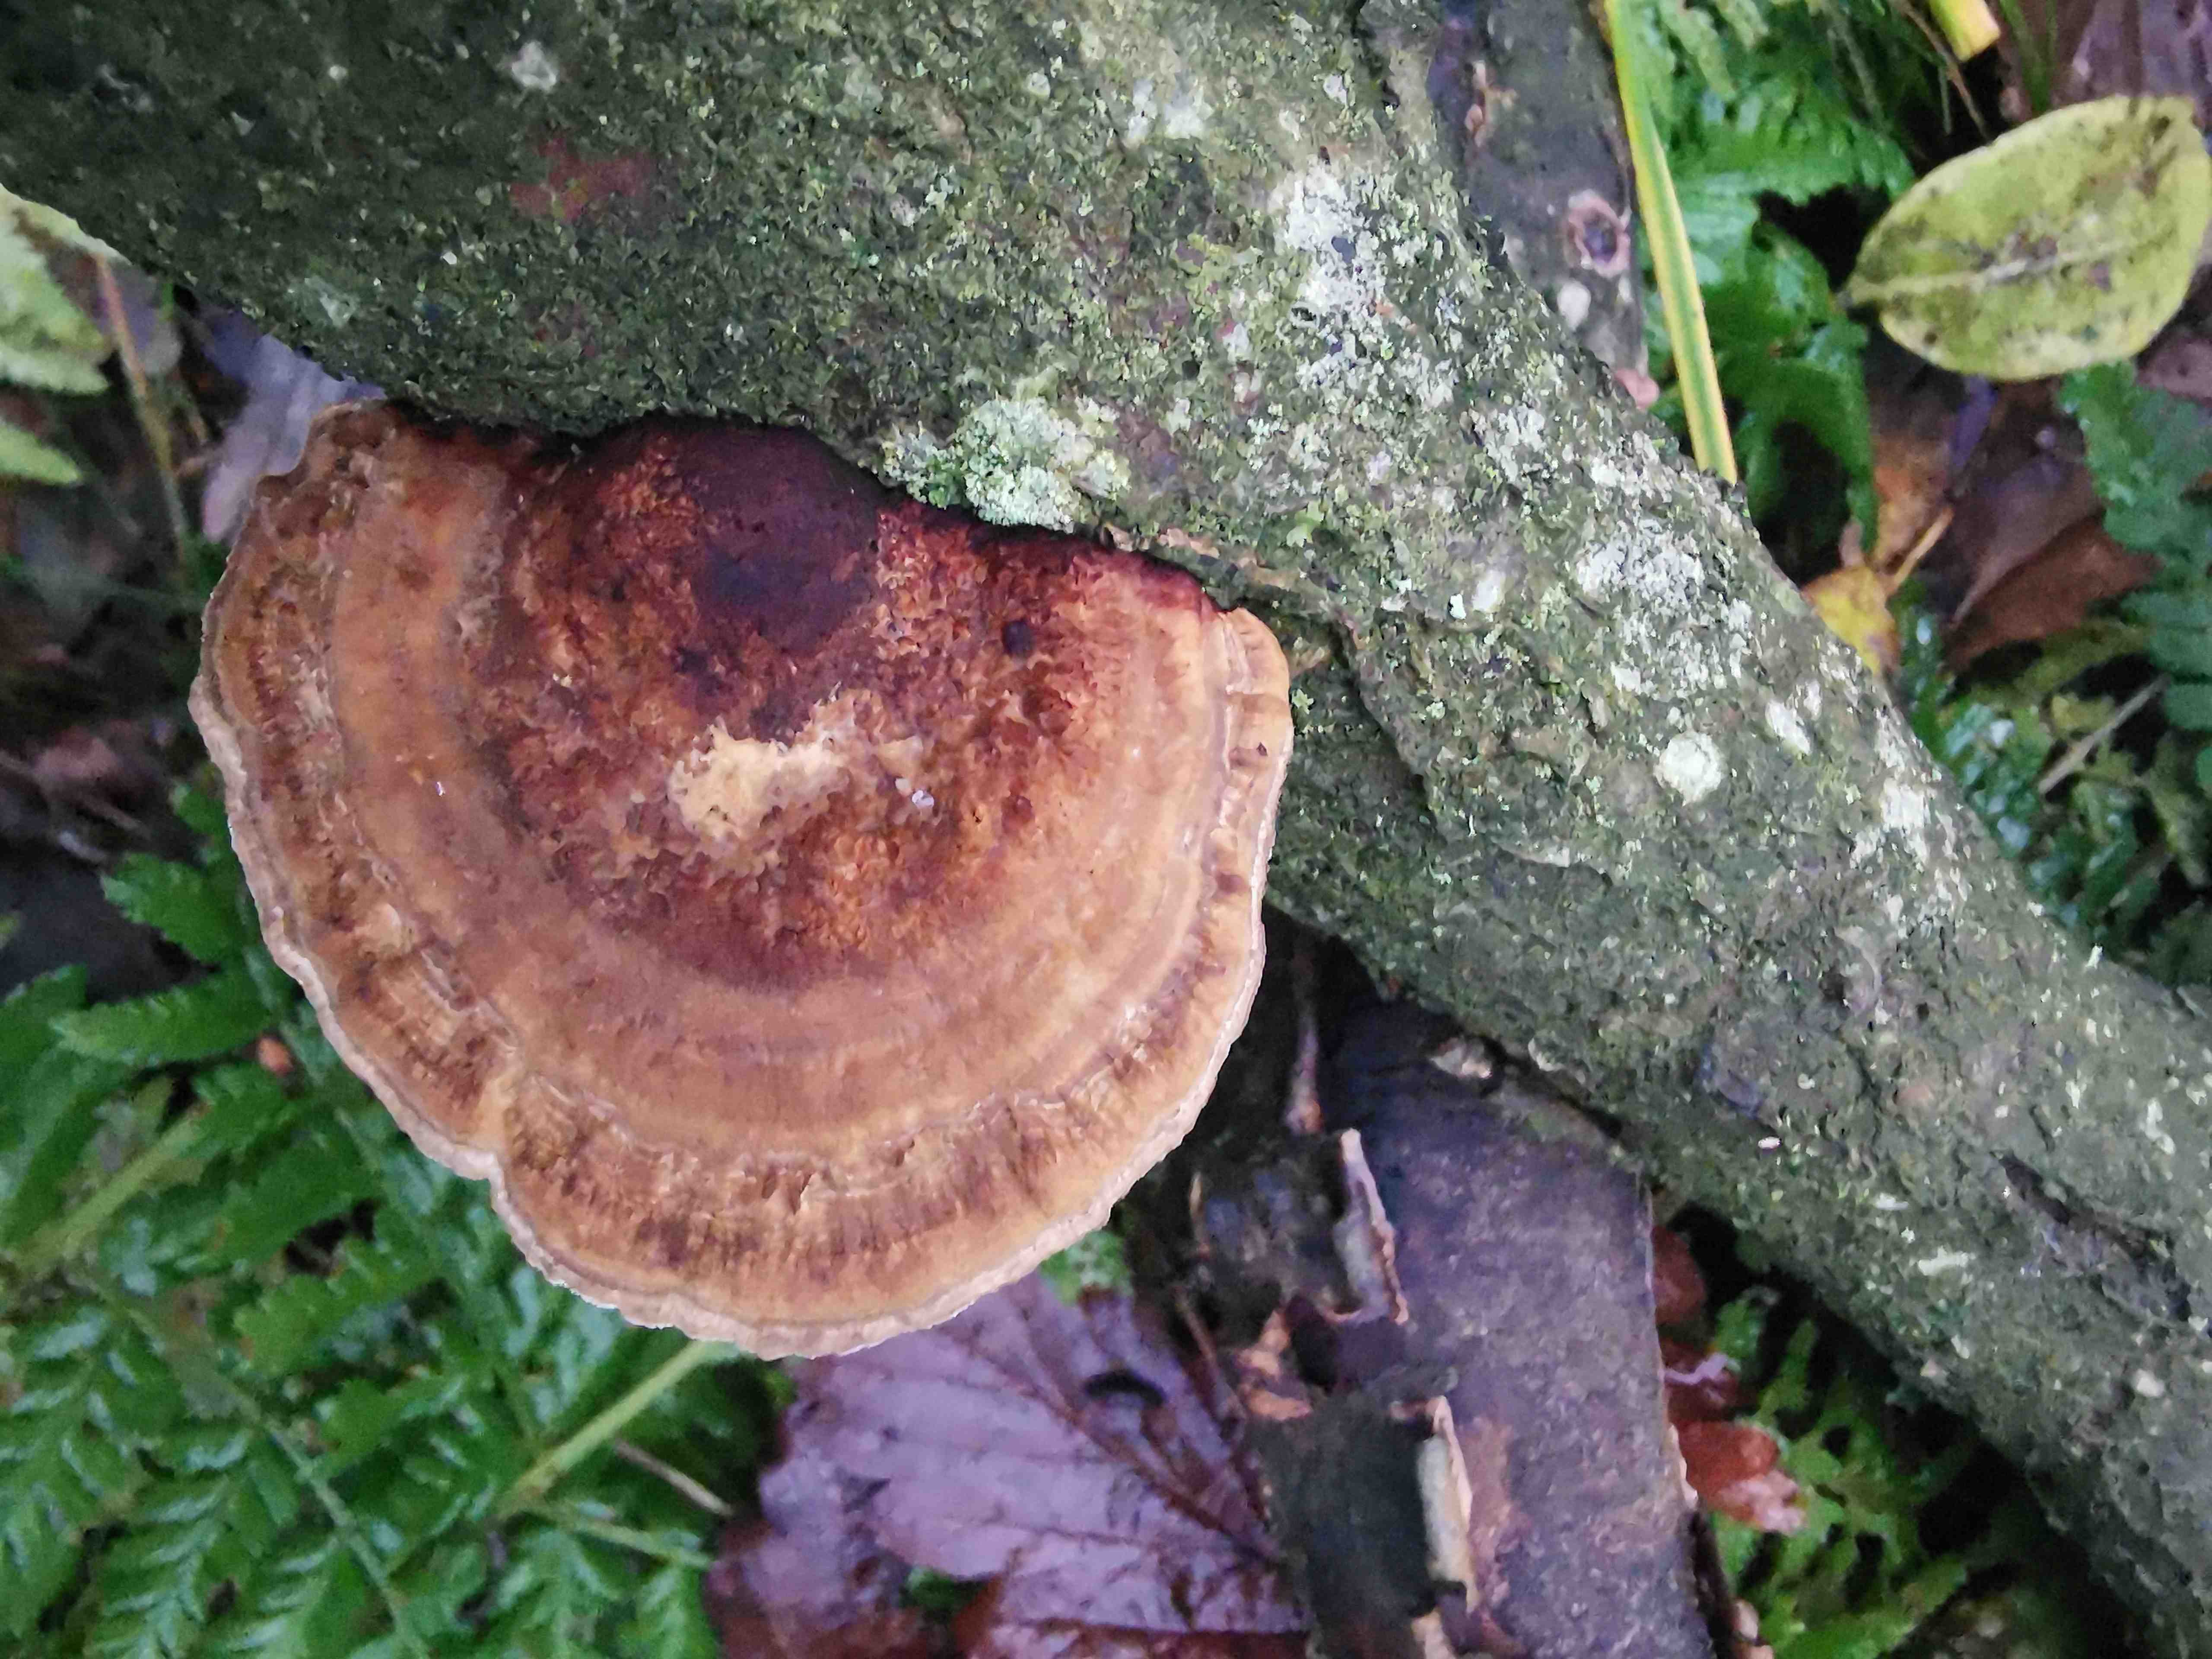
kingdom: Fungi
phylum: Basidiomycota
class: Agaricomycetes
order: Polyporales
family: Polyporaceae
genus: Daedaleopsis
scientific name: Daedaleopsis confragosa
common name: rødmende læderporesvamp
